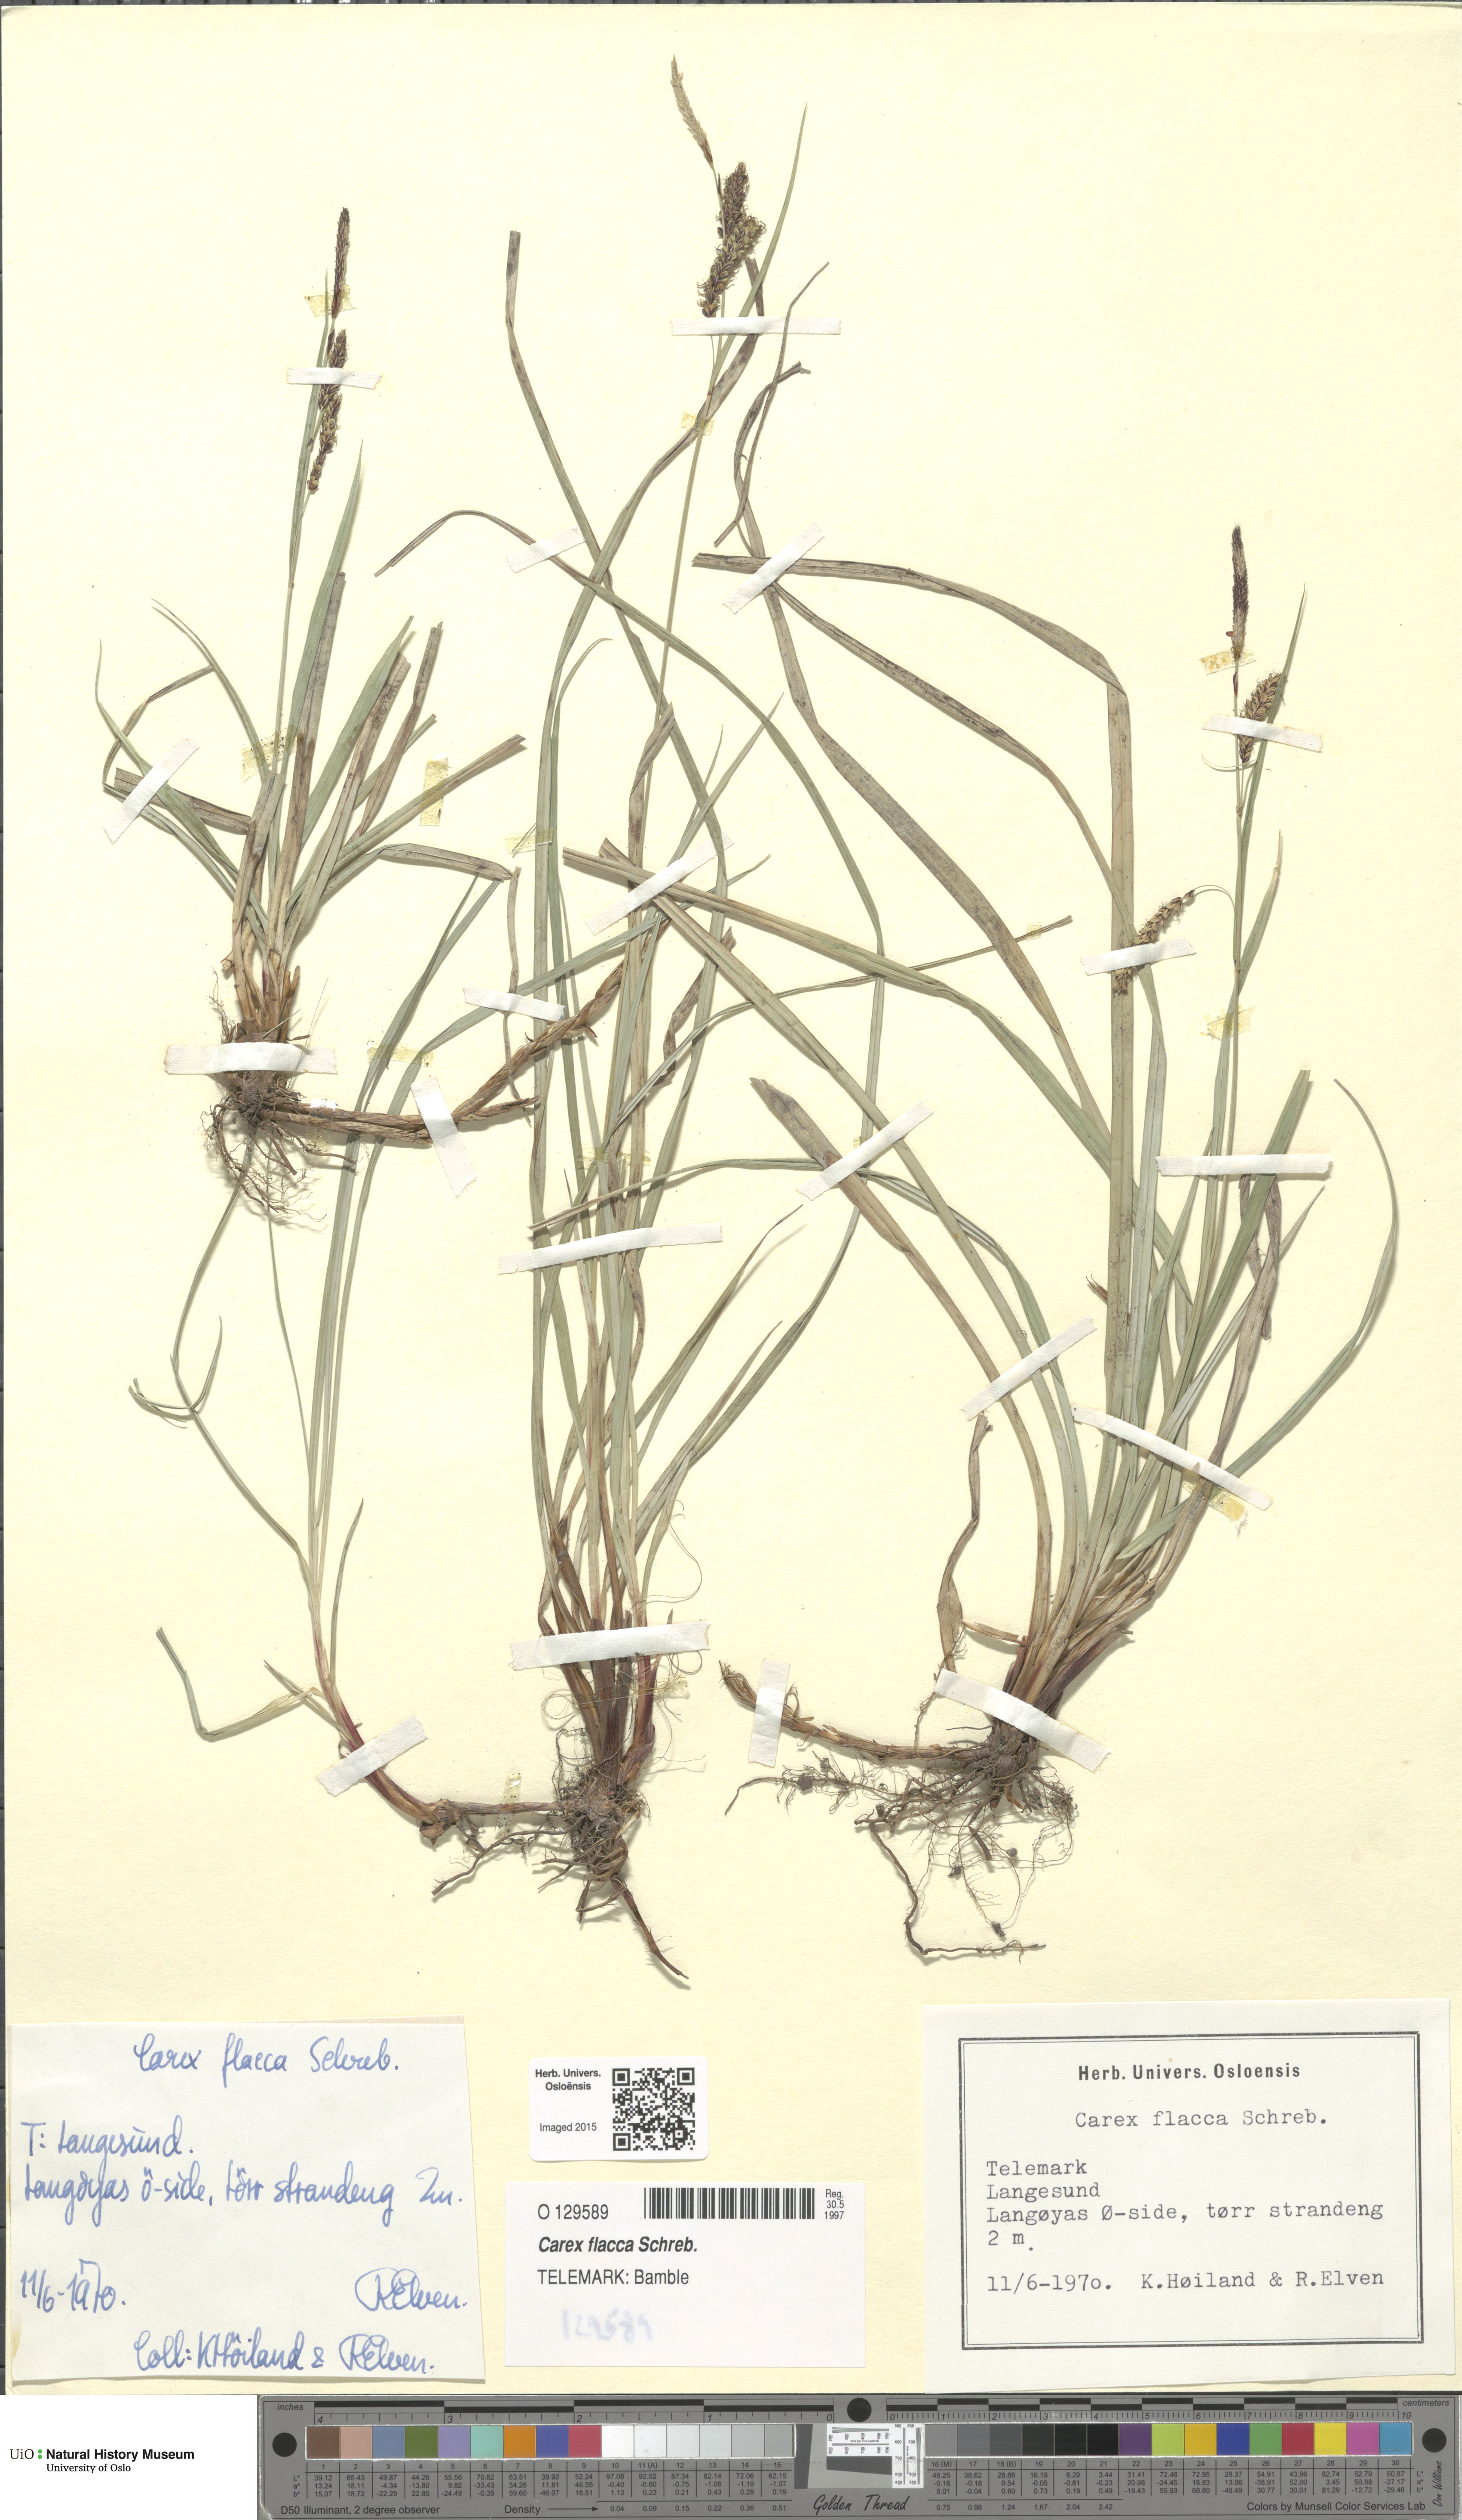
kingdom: Plantae
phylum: Tracheophyta
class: Liliopsida
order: Poales
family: Cyperaceae
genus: Carex
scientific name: Carex flacca
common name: Glaucous sedge
